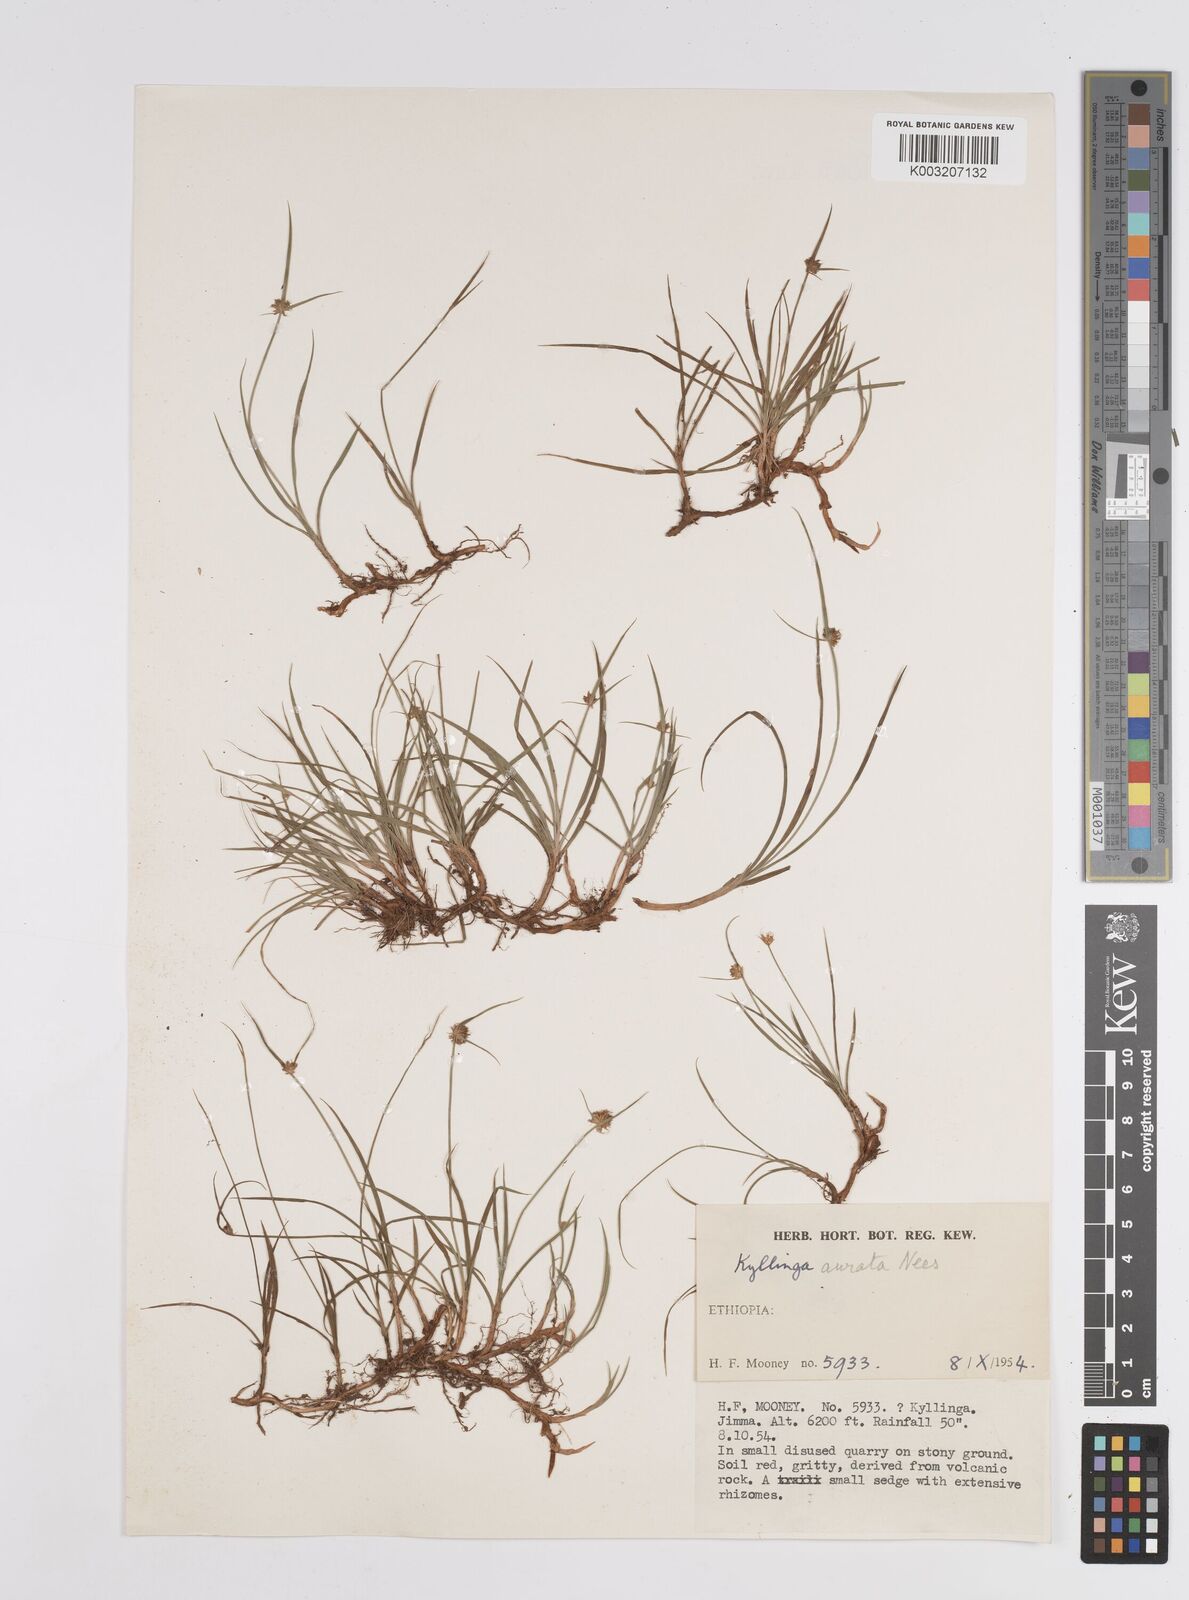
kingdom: Plantae
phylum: Tracheophyta
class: Liliopsida
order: Poales
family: Cyperaceae
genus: Cyperus
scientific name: Cyperus
